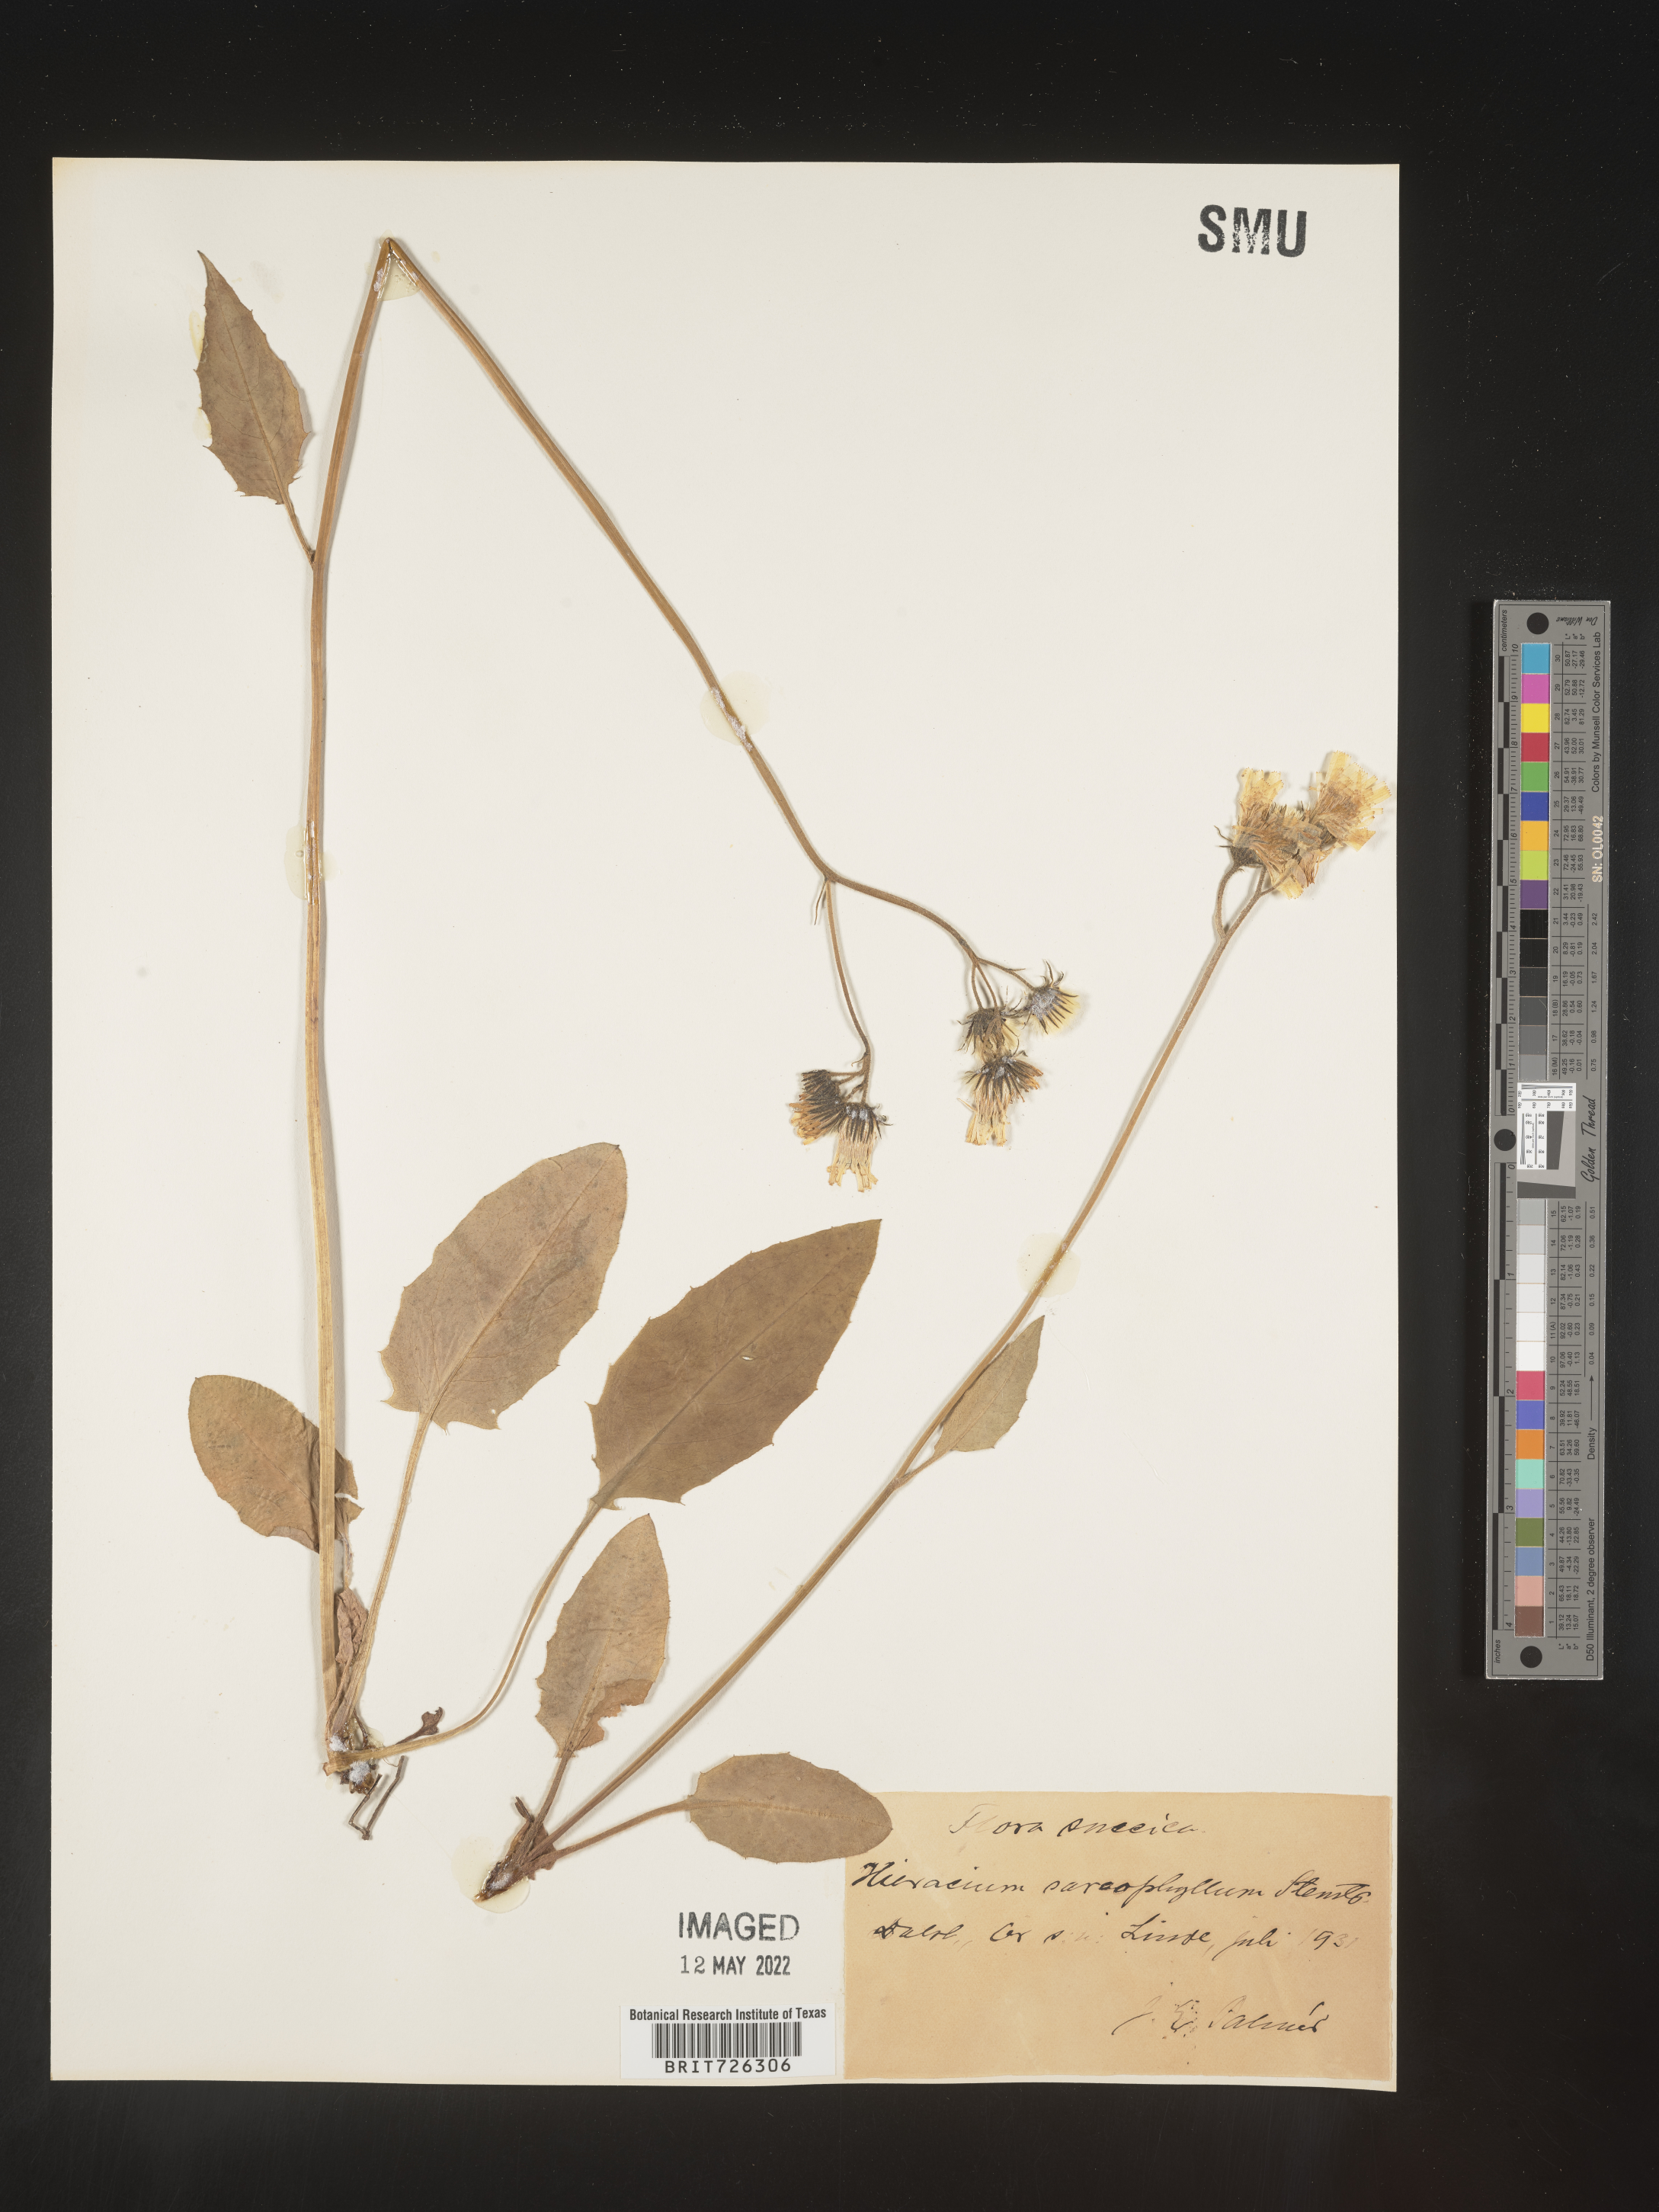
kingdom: Plantae
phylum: Tracheophyta
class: Magnoliopsida
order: Asterales
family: Asteraceae
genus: Hieracium
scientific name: Hieracium
